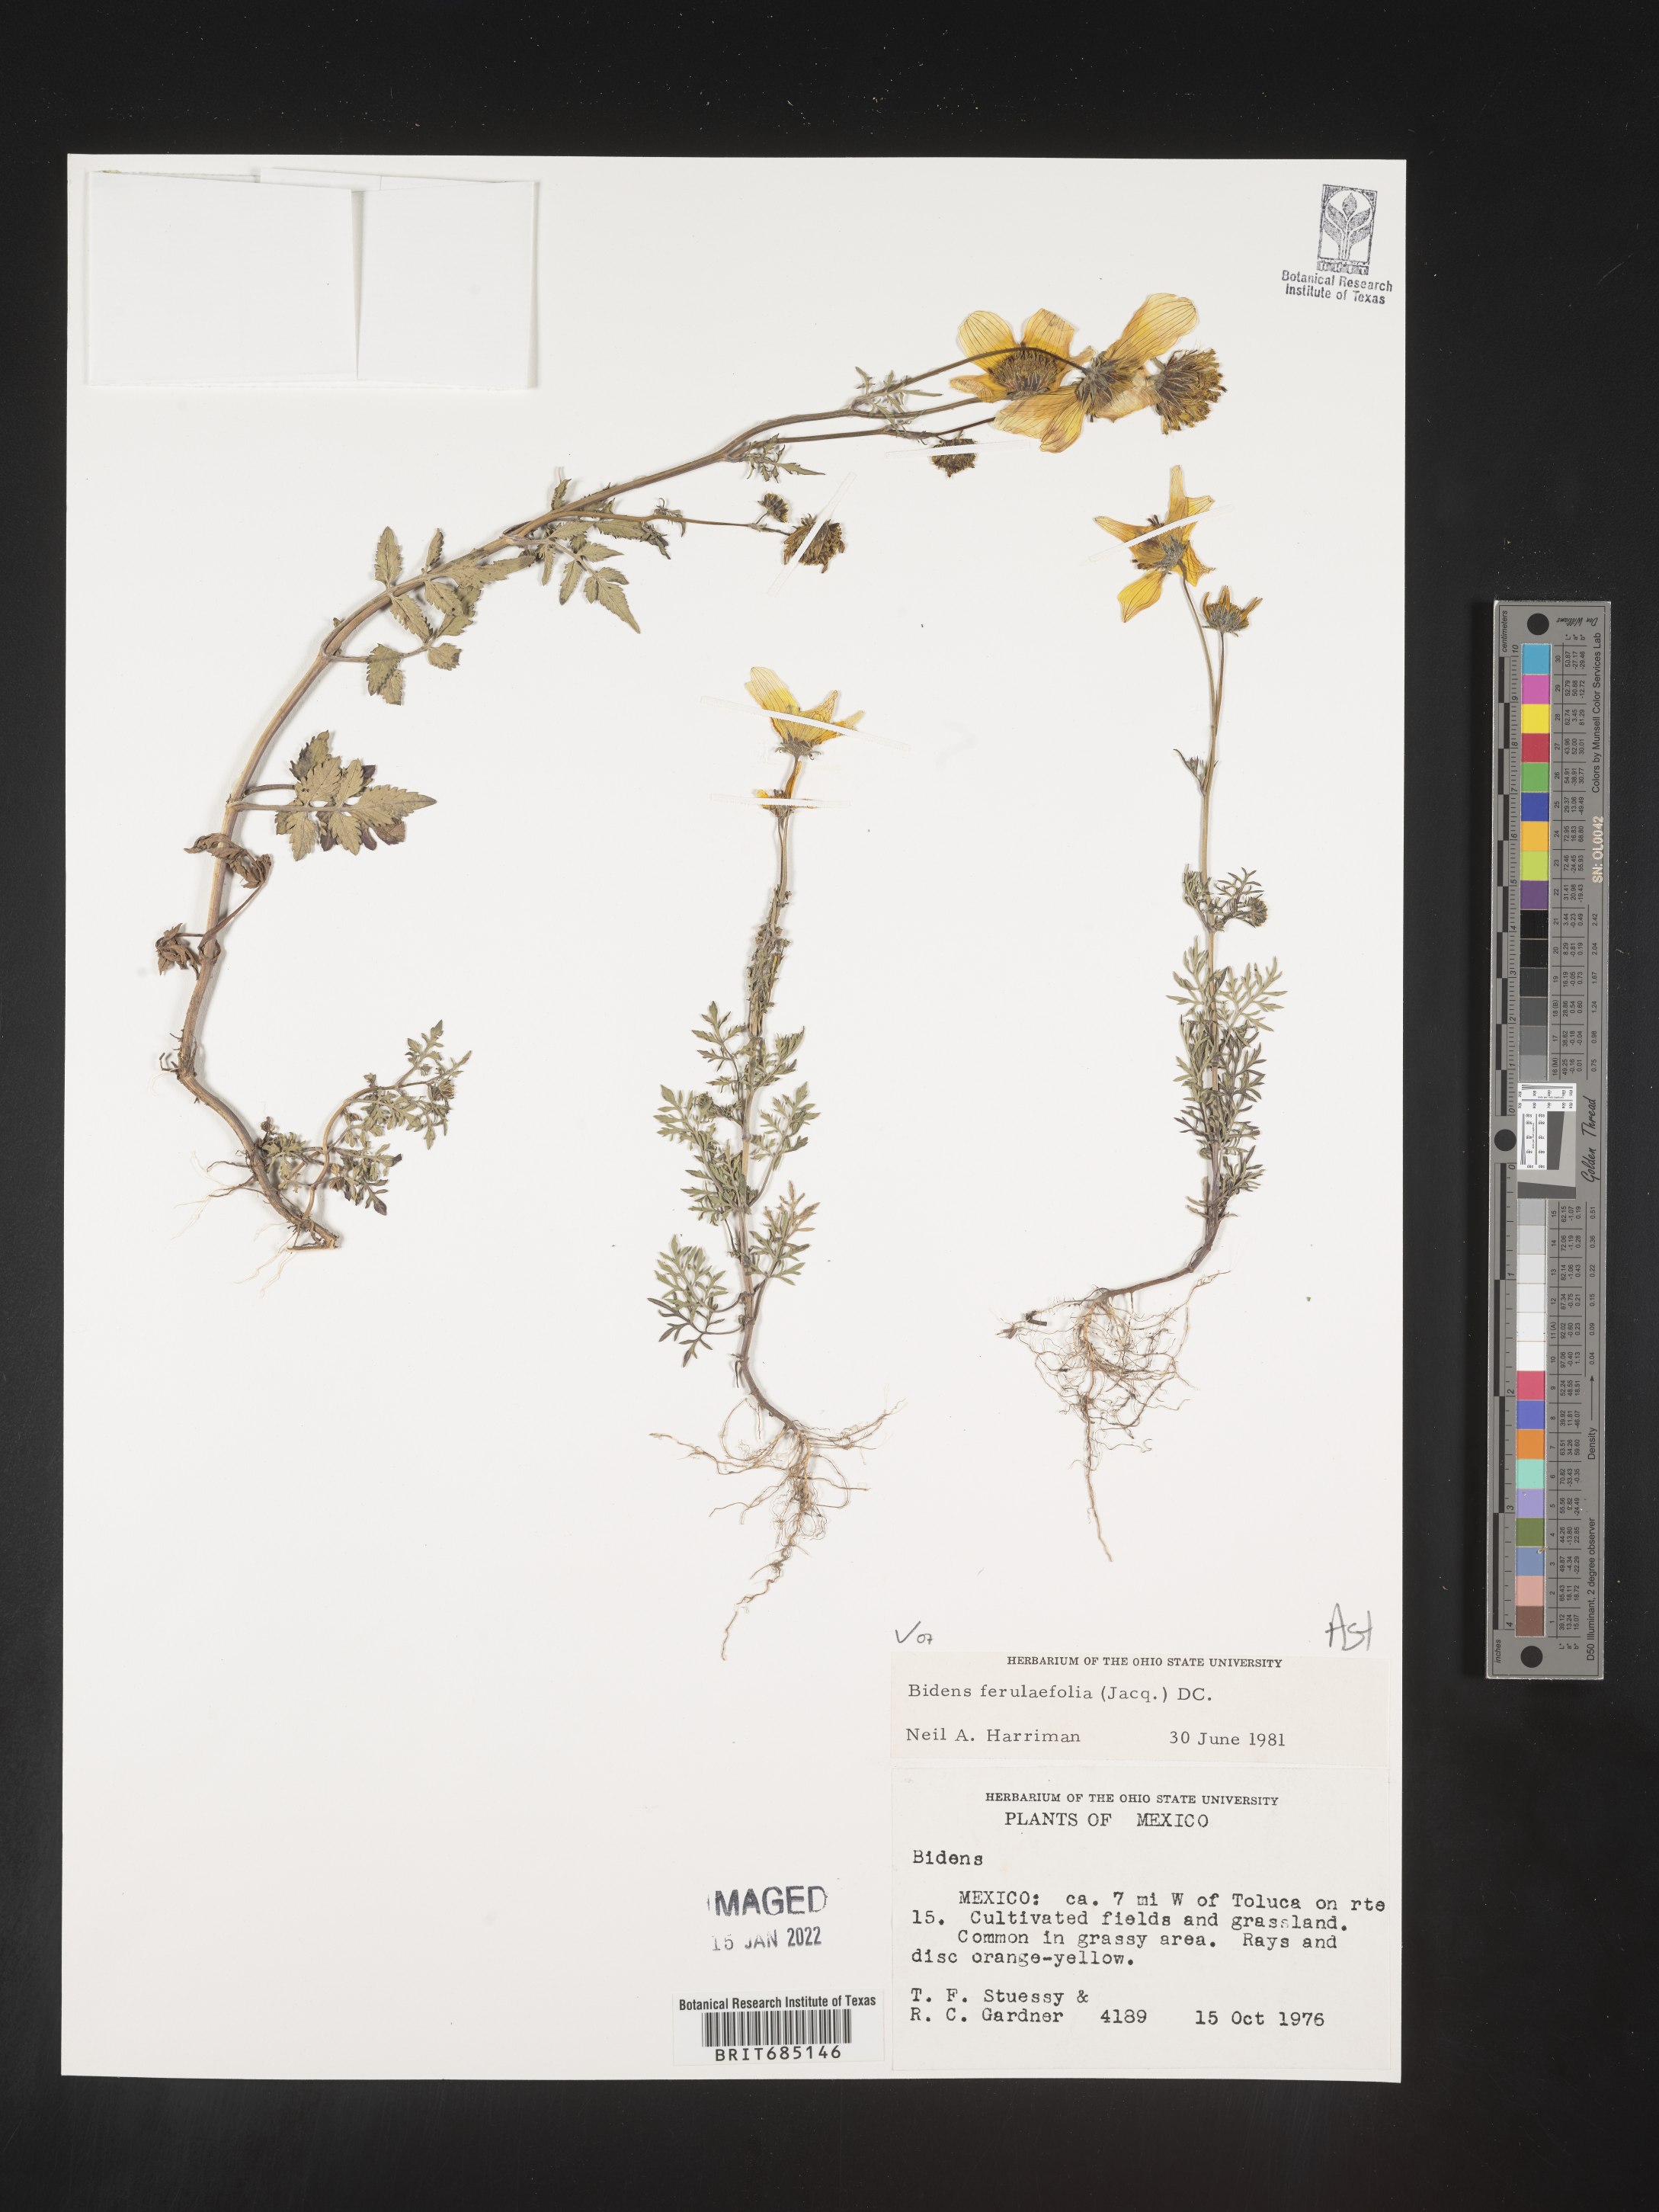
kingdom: Plantae
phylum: Tracheophyta
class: Magnoliopsida
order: Asterales
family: Asteraceae
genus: Bidens
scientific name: Bidens
